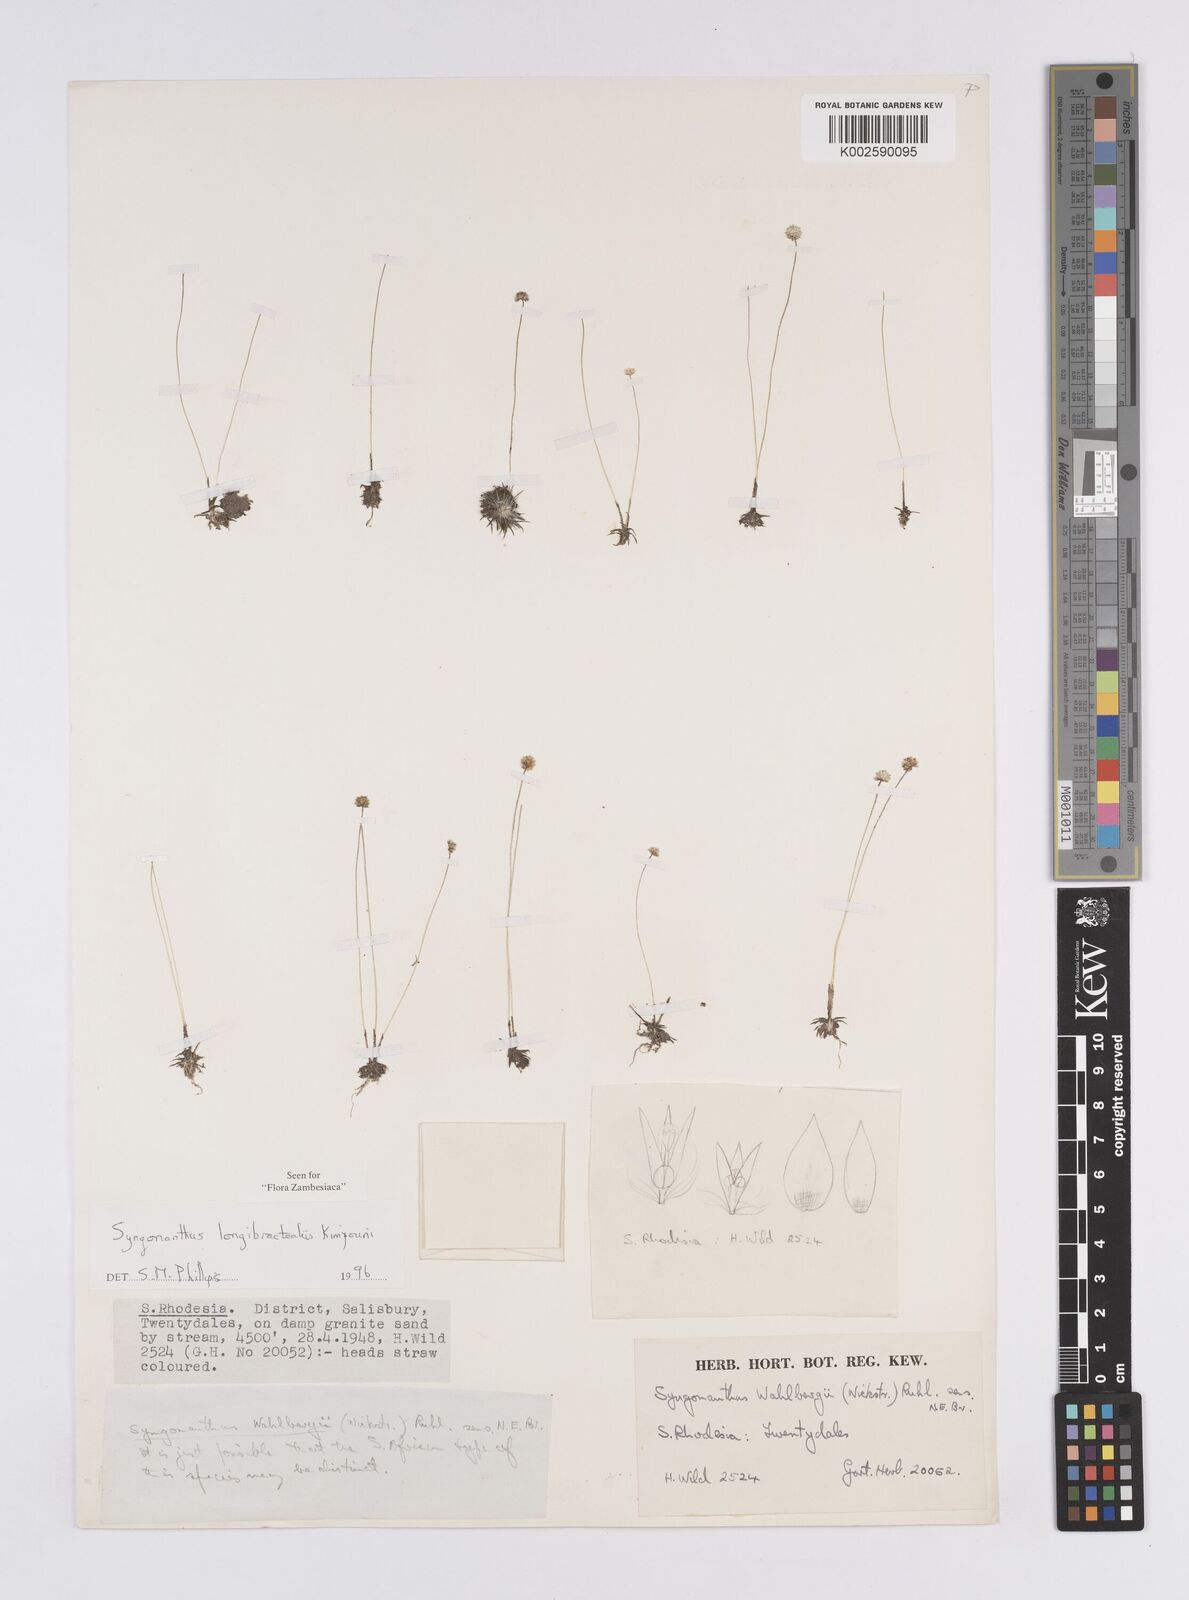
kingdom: Plantae
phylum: Tracheophyta
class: Liliopsida
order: Poales
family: Eriocaulaceae
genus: Syngonanthus
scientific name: Syngonanthus longibracteatus
